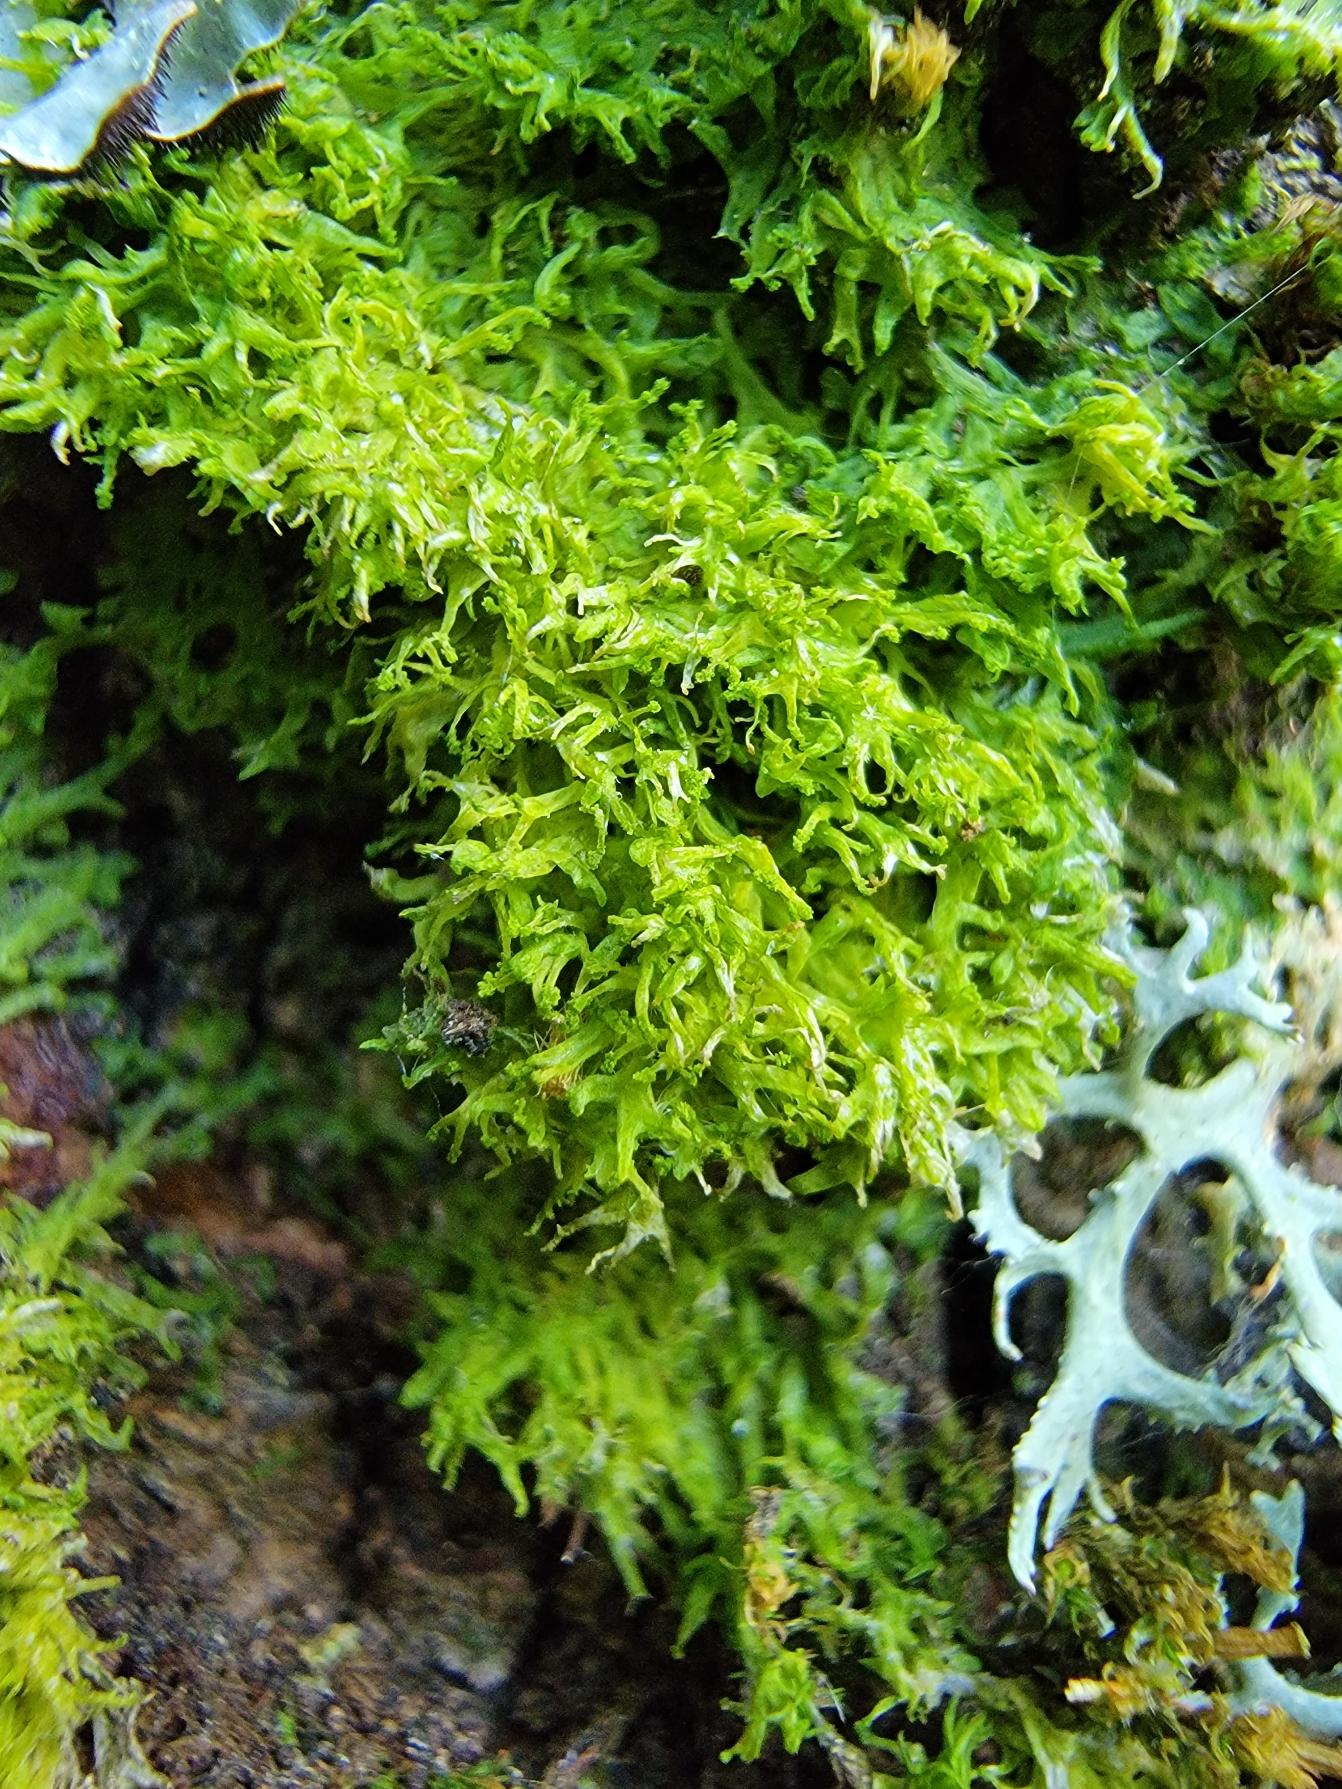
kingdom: Plantae
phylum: Marchantiophyta
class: Jungermanniopsida
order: Metzgeriales
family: Aneuraceae
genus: Riccardia
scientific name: Riccardia palmata
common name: Blågrøn gaffelløv
